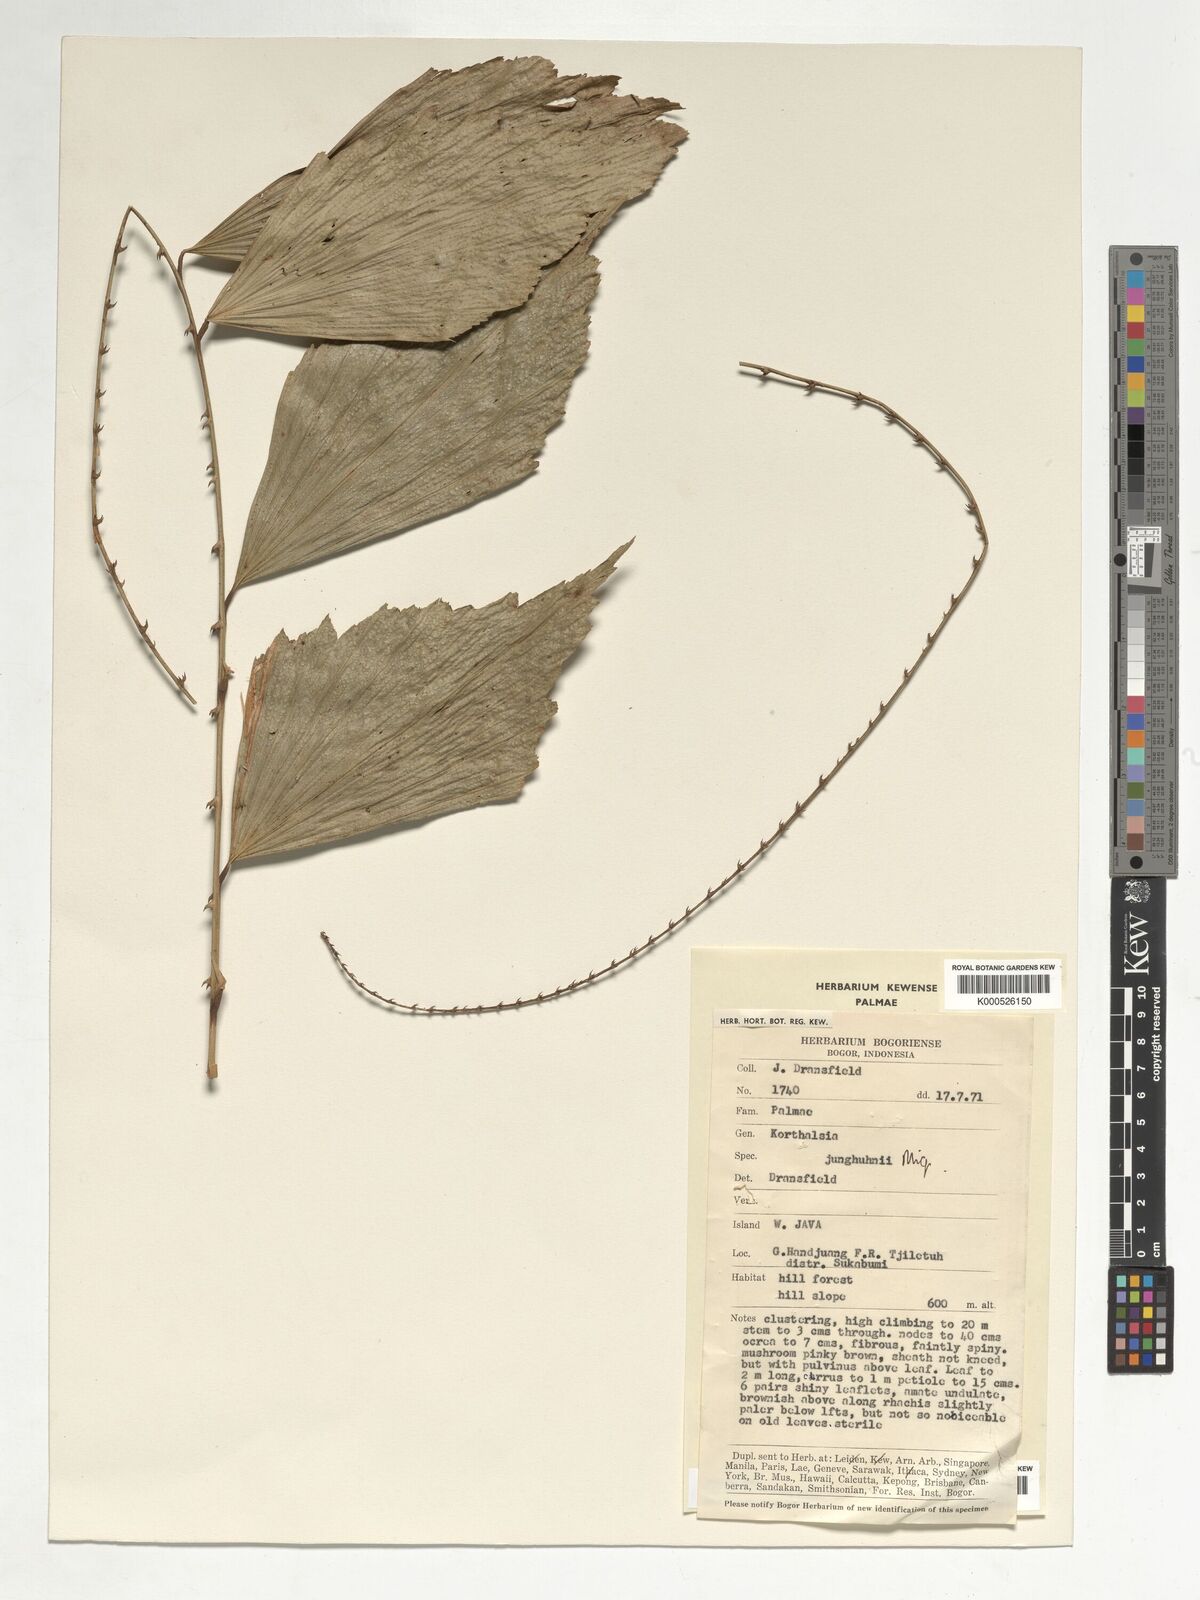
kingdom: Plantae
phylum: Tracheophyta
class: Liliopsida
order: Arecales
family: Arecaceae
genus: Korthalsia
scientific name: Korthalsia junghuhnii
